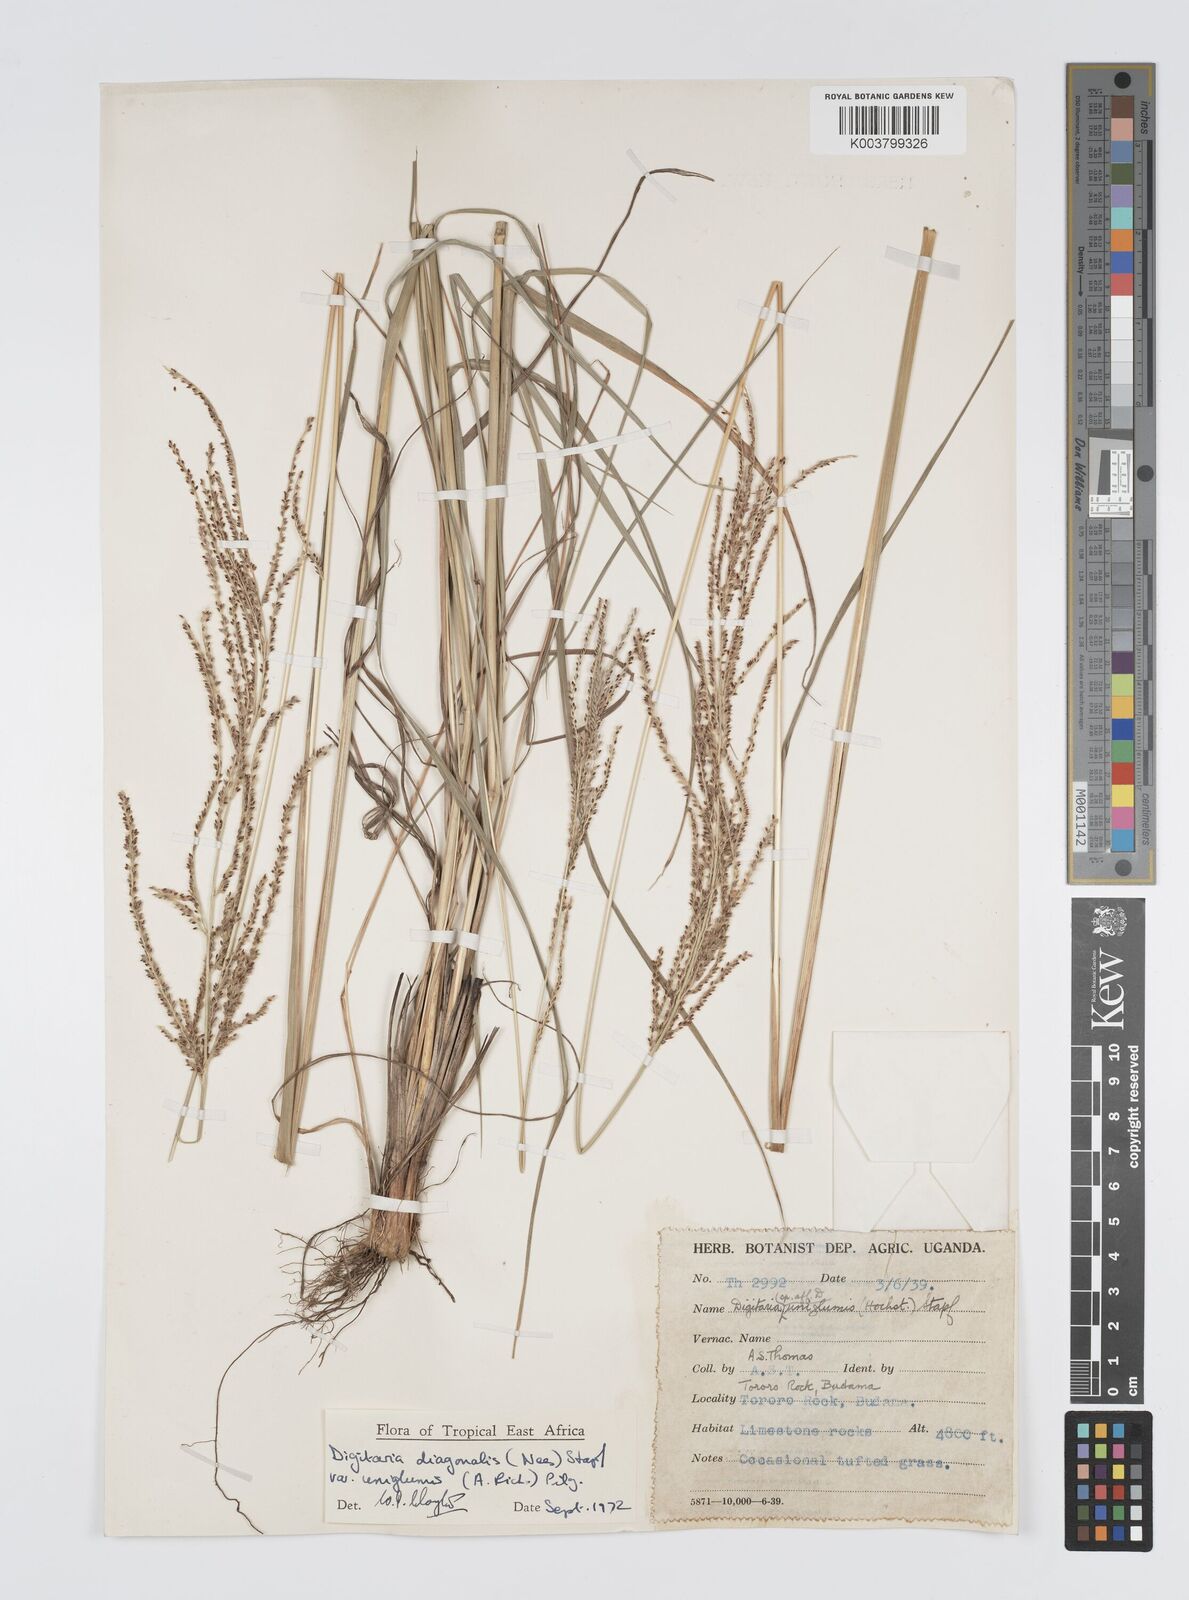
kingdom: Plantae
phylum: Tracheophyta
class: Liliopsida
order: Poales
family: Poaceae
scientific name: Poaceae
